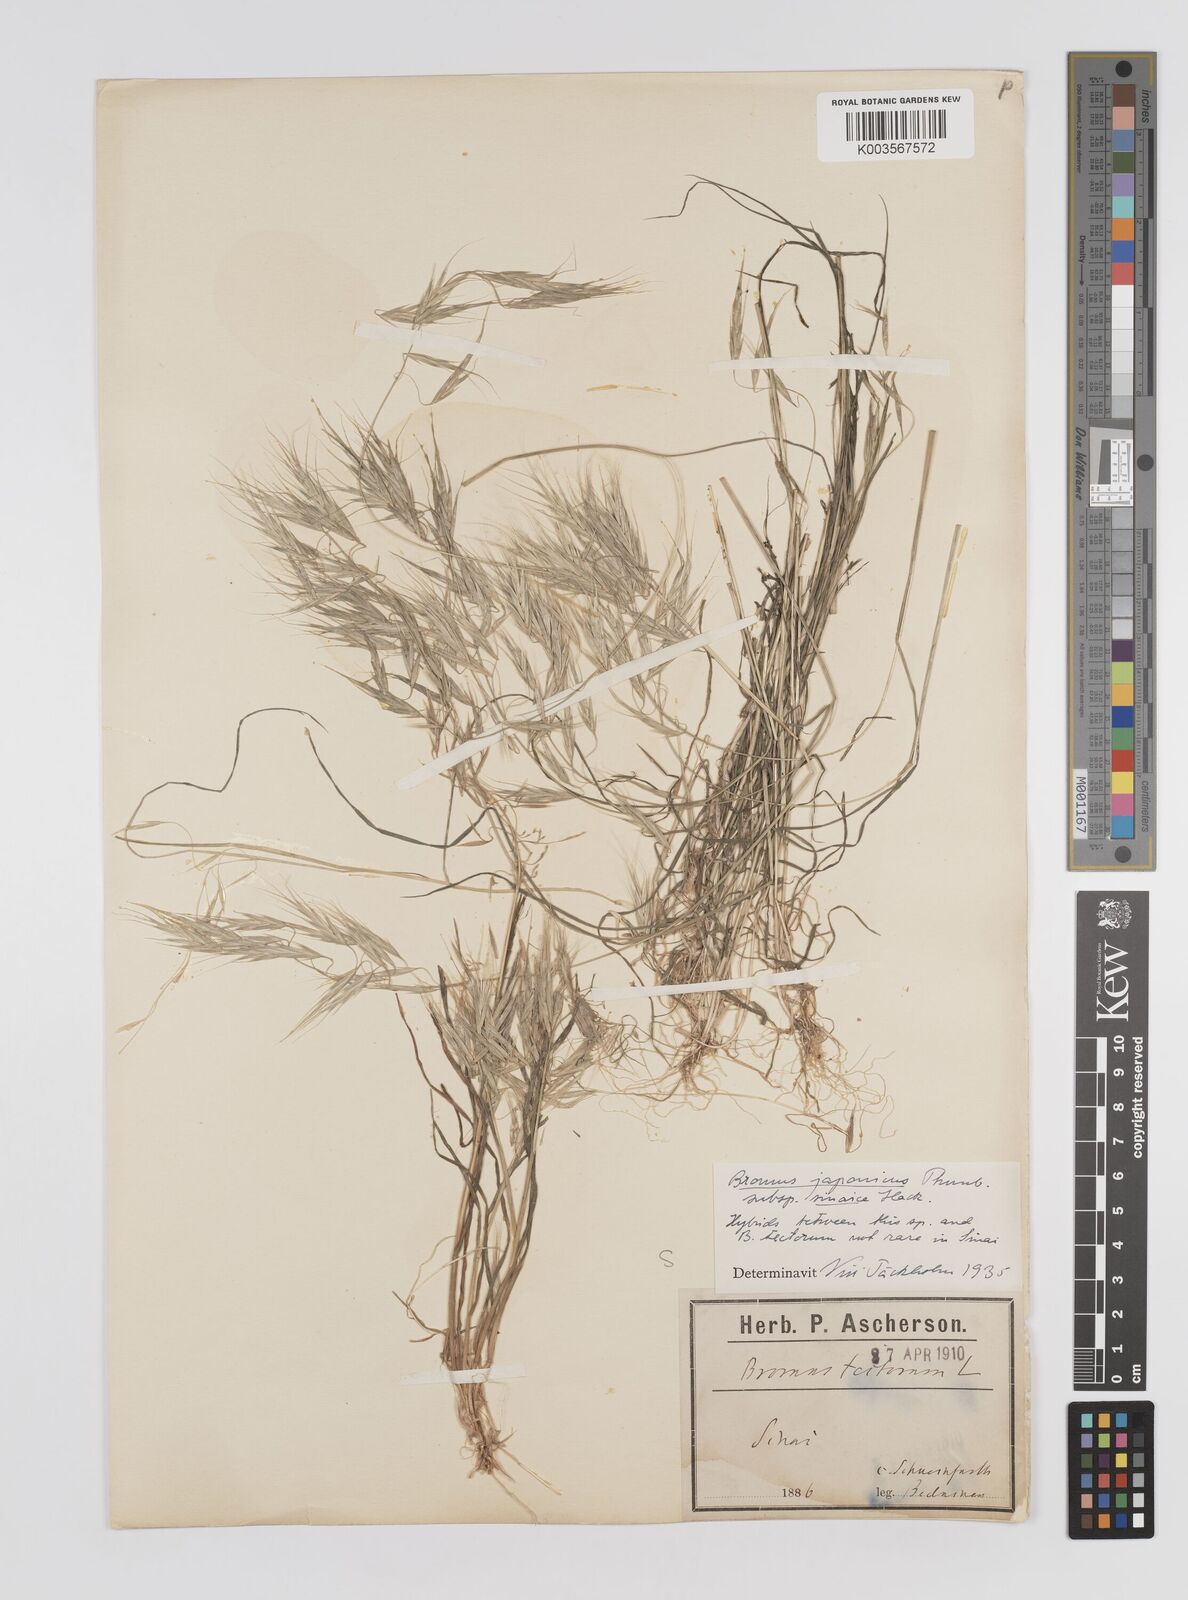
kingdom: Plantae
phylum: Tracheophyta
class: Liliopsida
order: Poales
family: Poaceae
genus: Bromus
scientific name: Bromus pectinatus
